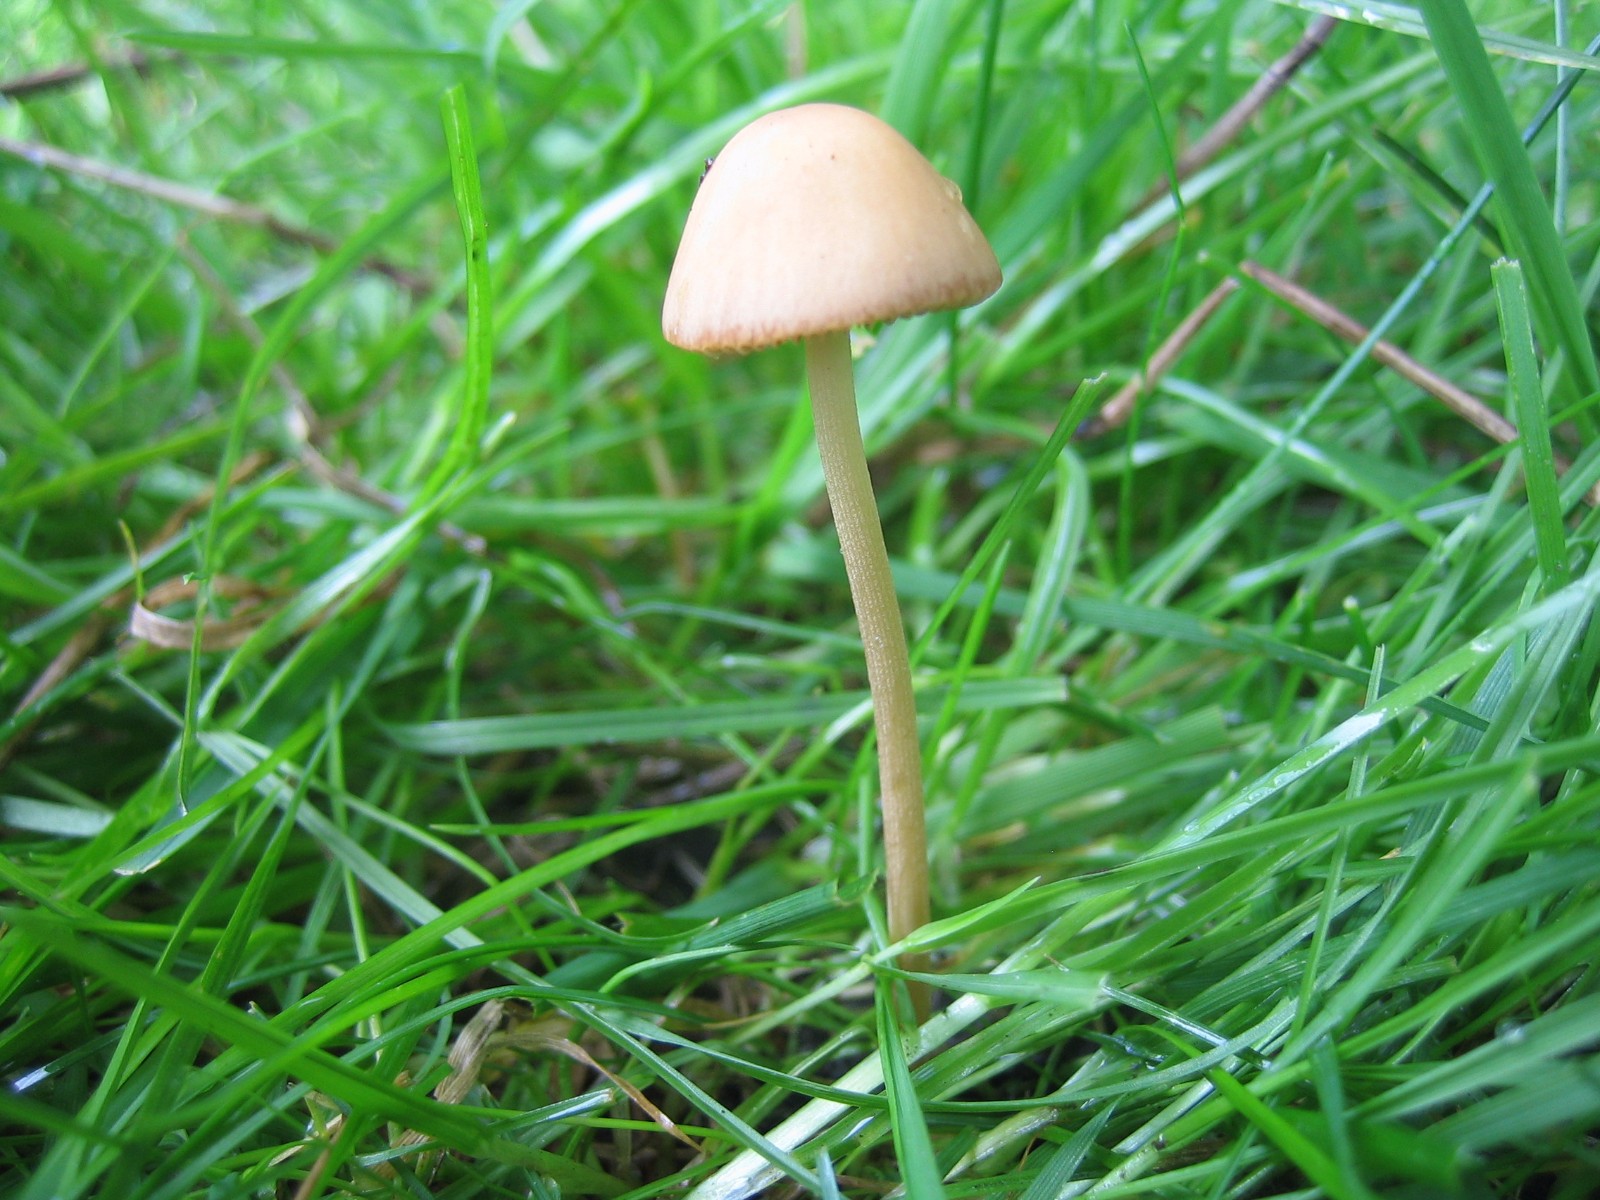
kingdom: Fungi
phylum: Basidiomycota
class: Agaricomycetes
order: Agaricales
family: Bolbitiaceae
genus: Conocybe
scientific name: Conocybe
